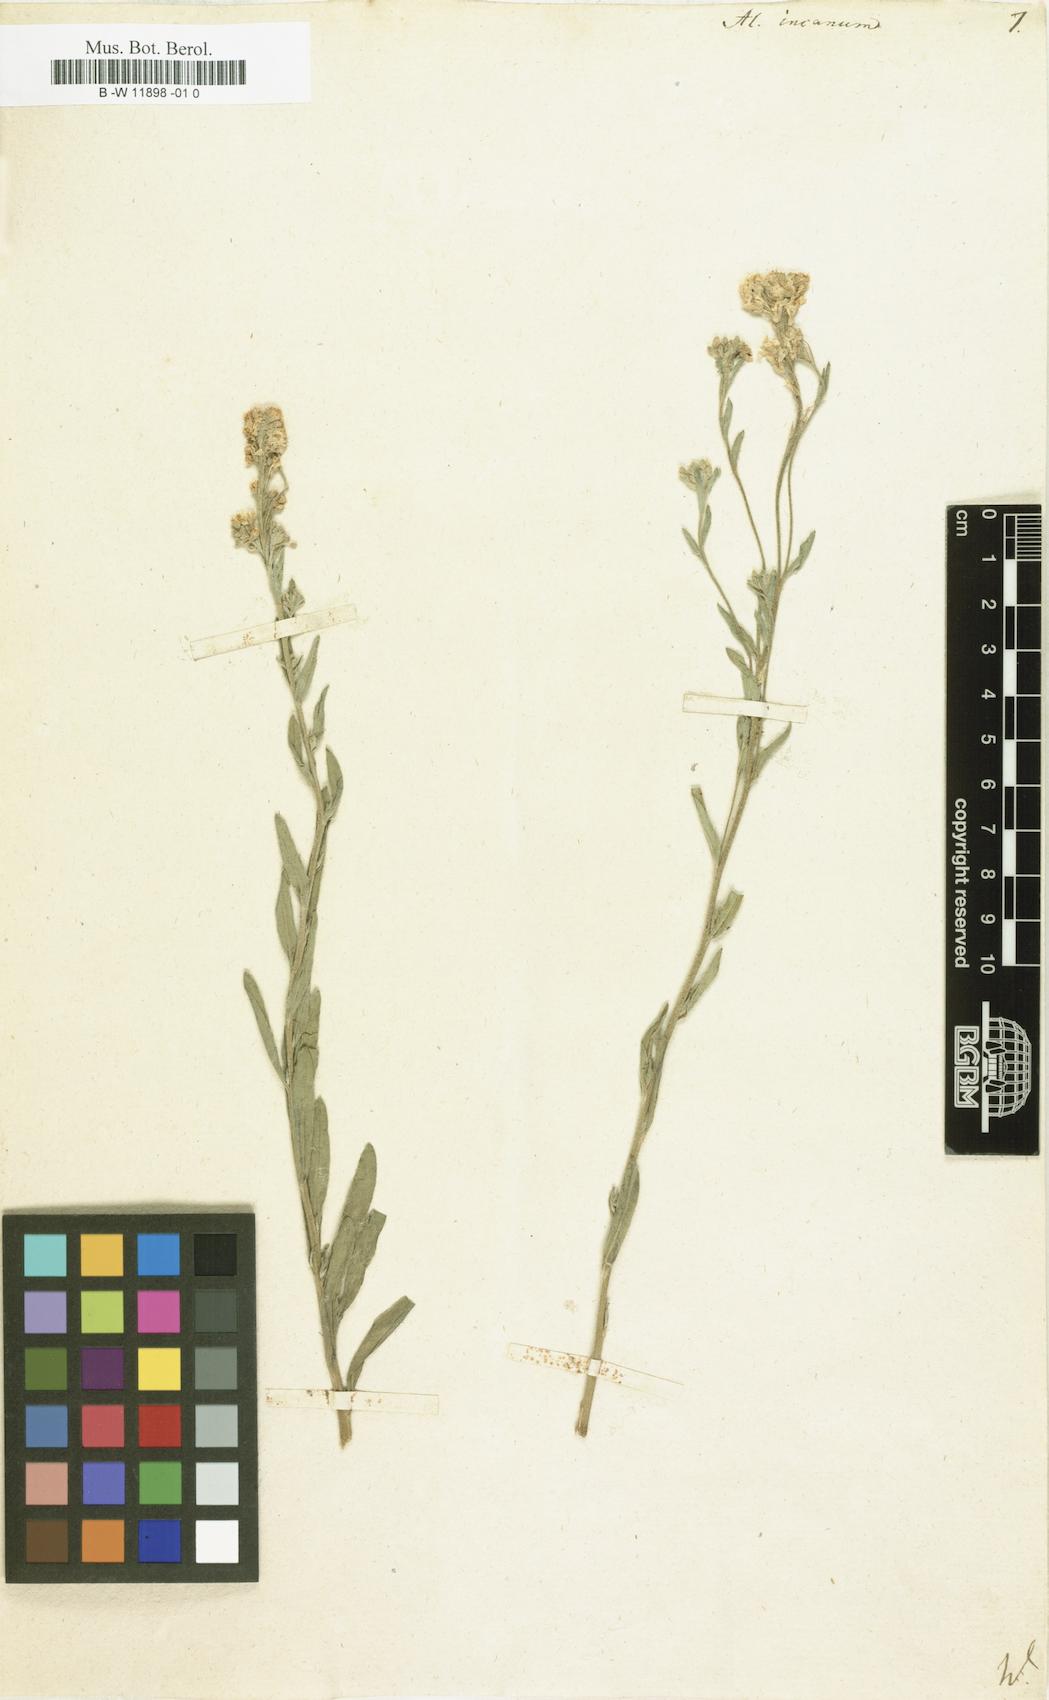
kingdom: Plantae
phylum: Tracheophyta
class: Magnoliopsida
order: Brassicales
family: Brassicaceae
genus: Berteroa
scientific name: Berteroa incana
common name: Hoary alison
